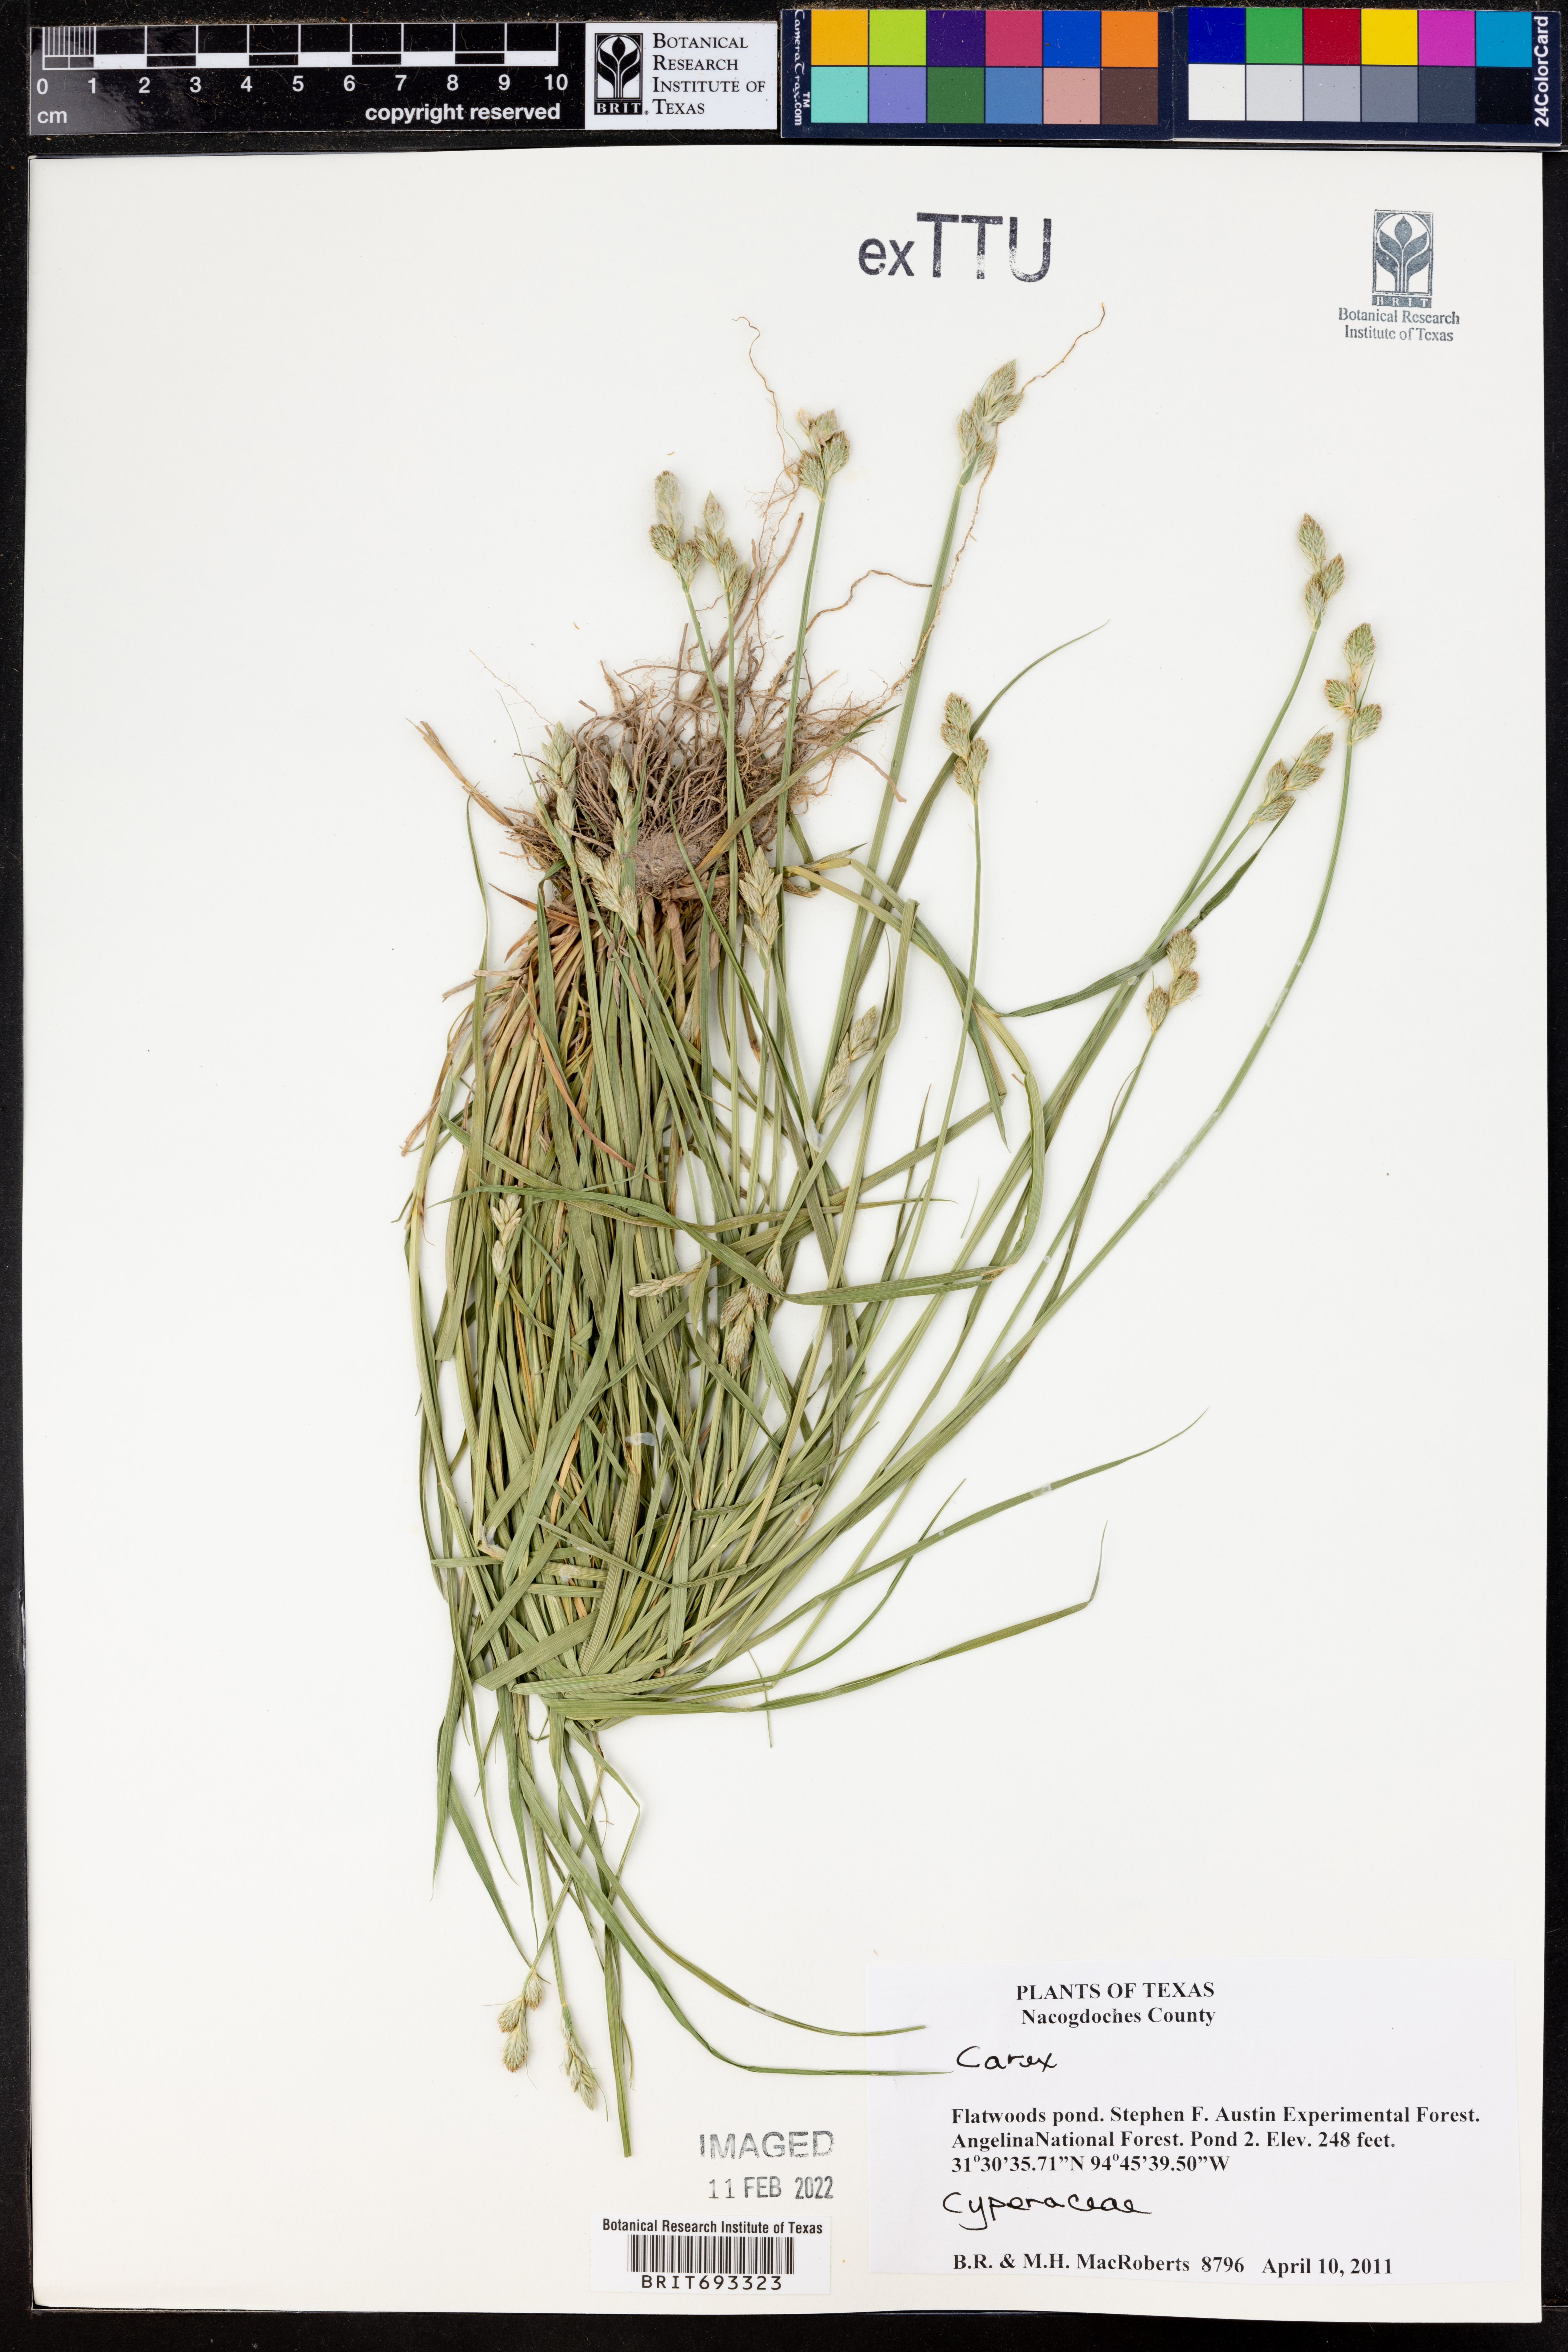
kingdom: Plantae
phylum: Tracheophyta
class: Liliopsida
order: Poales
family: Cyperaceae
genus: Carex
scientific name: Carex
